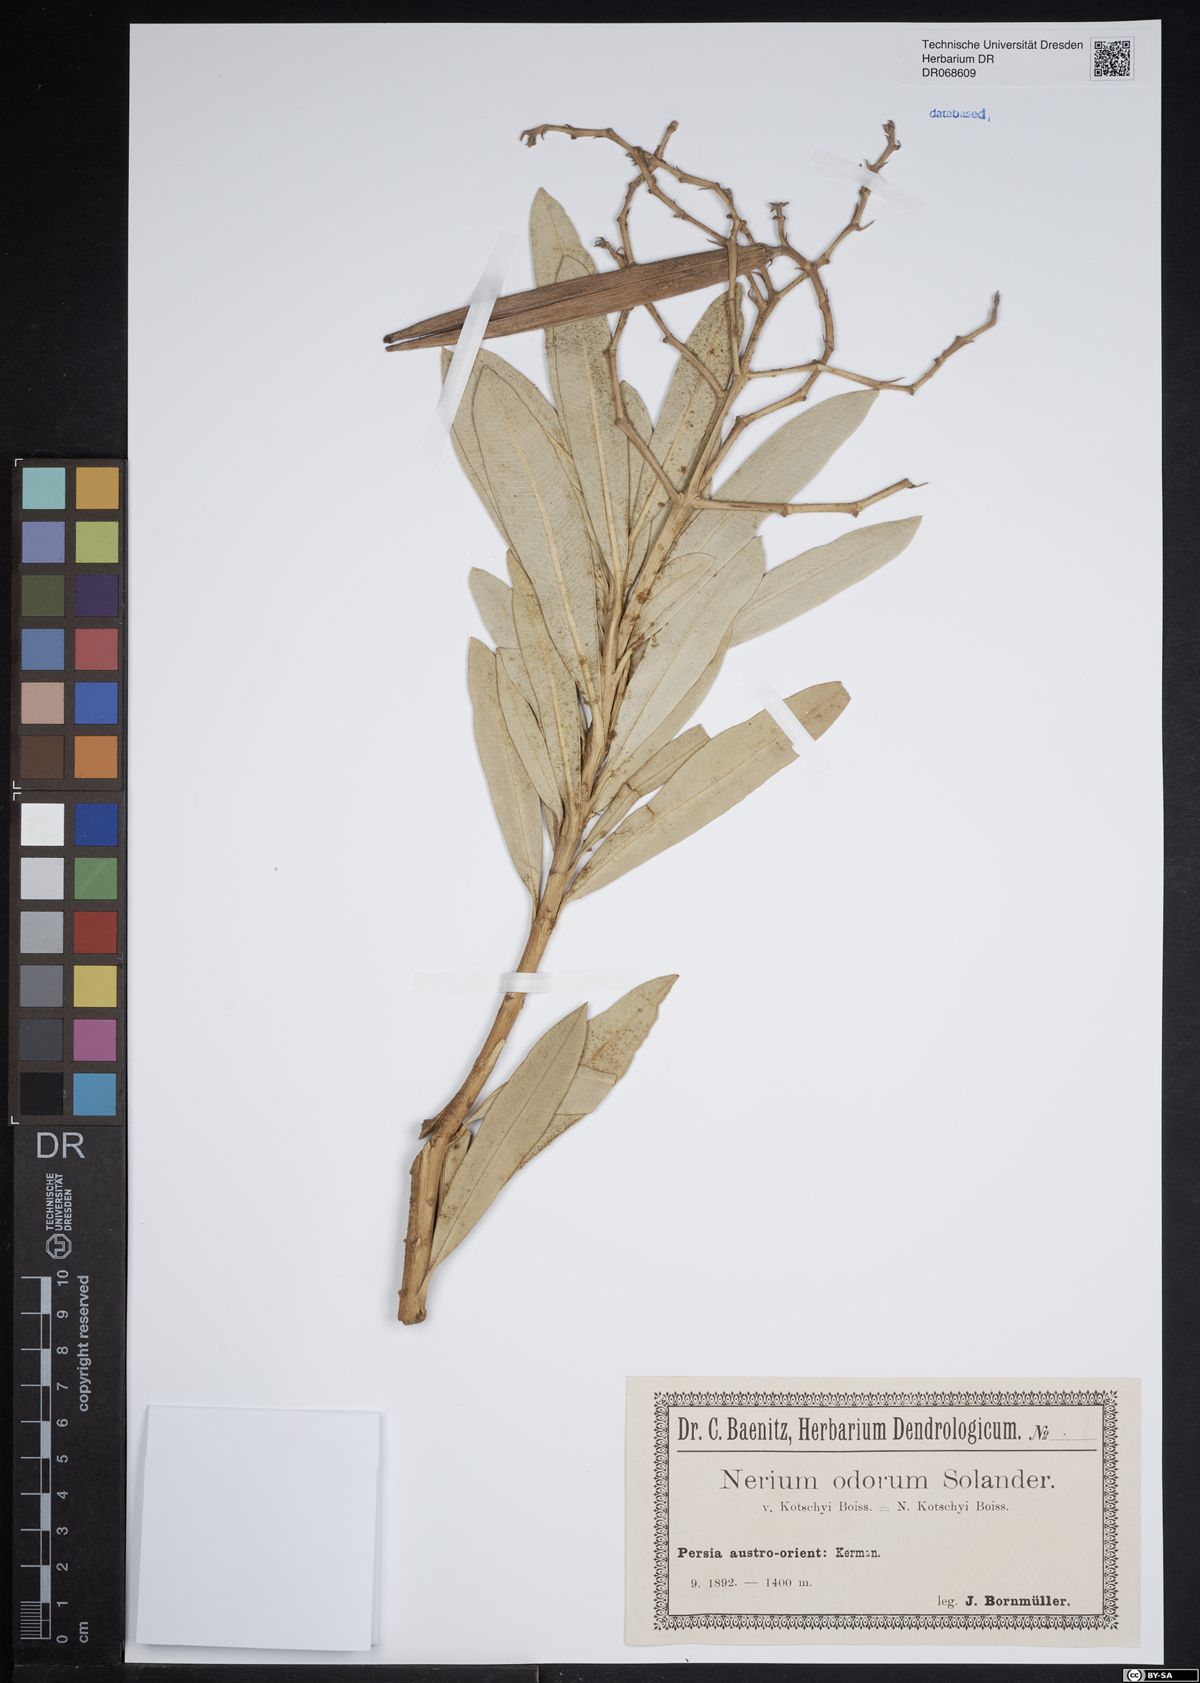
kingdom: Plantae
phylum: Tracheophyta
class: Magnoliopsida
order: Gentianales
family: Apocynaceae
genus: Nerium
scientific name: Nerium oleander
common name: Oleander
